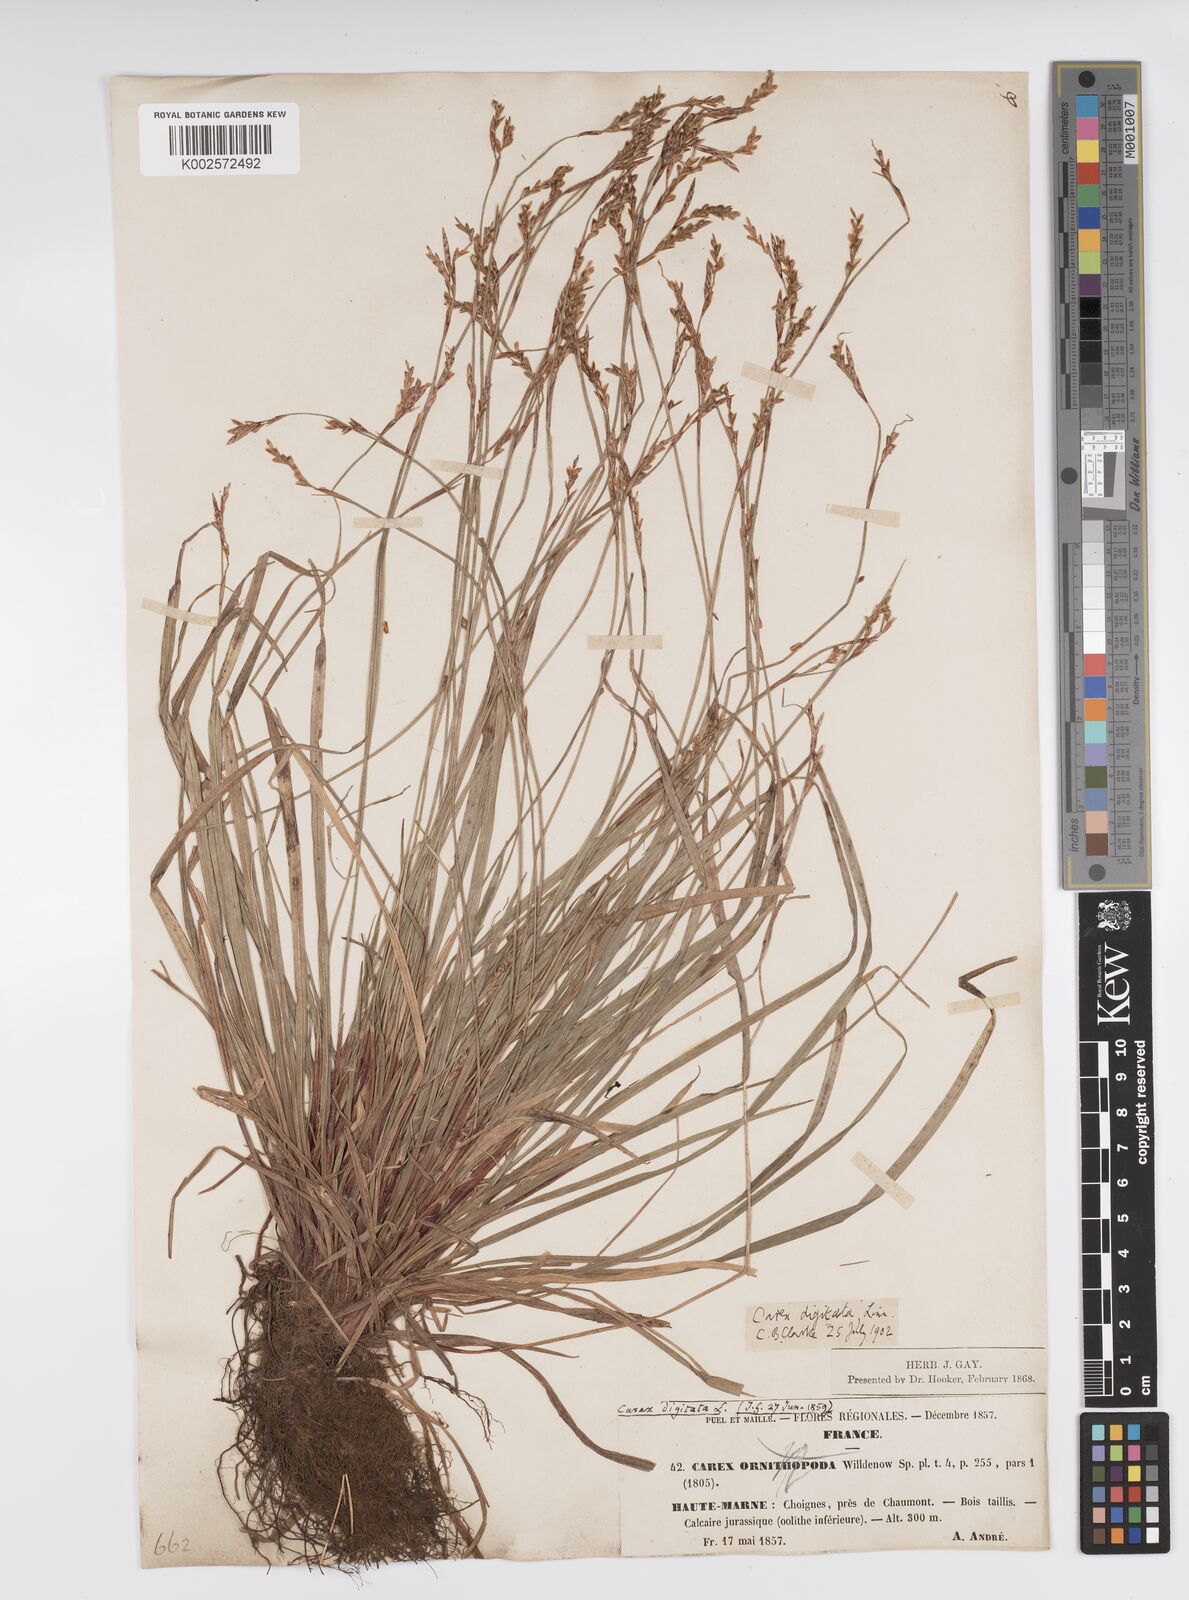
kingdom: Plantae
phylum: Tracheophyta
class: Liliopsida
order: Poales
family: Cyperaceae
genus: Carex
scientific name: Carex digitata
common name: Fingered sedge
